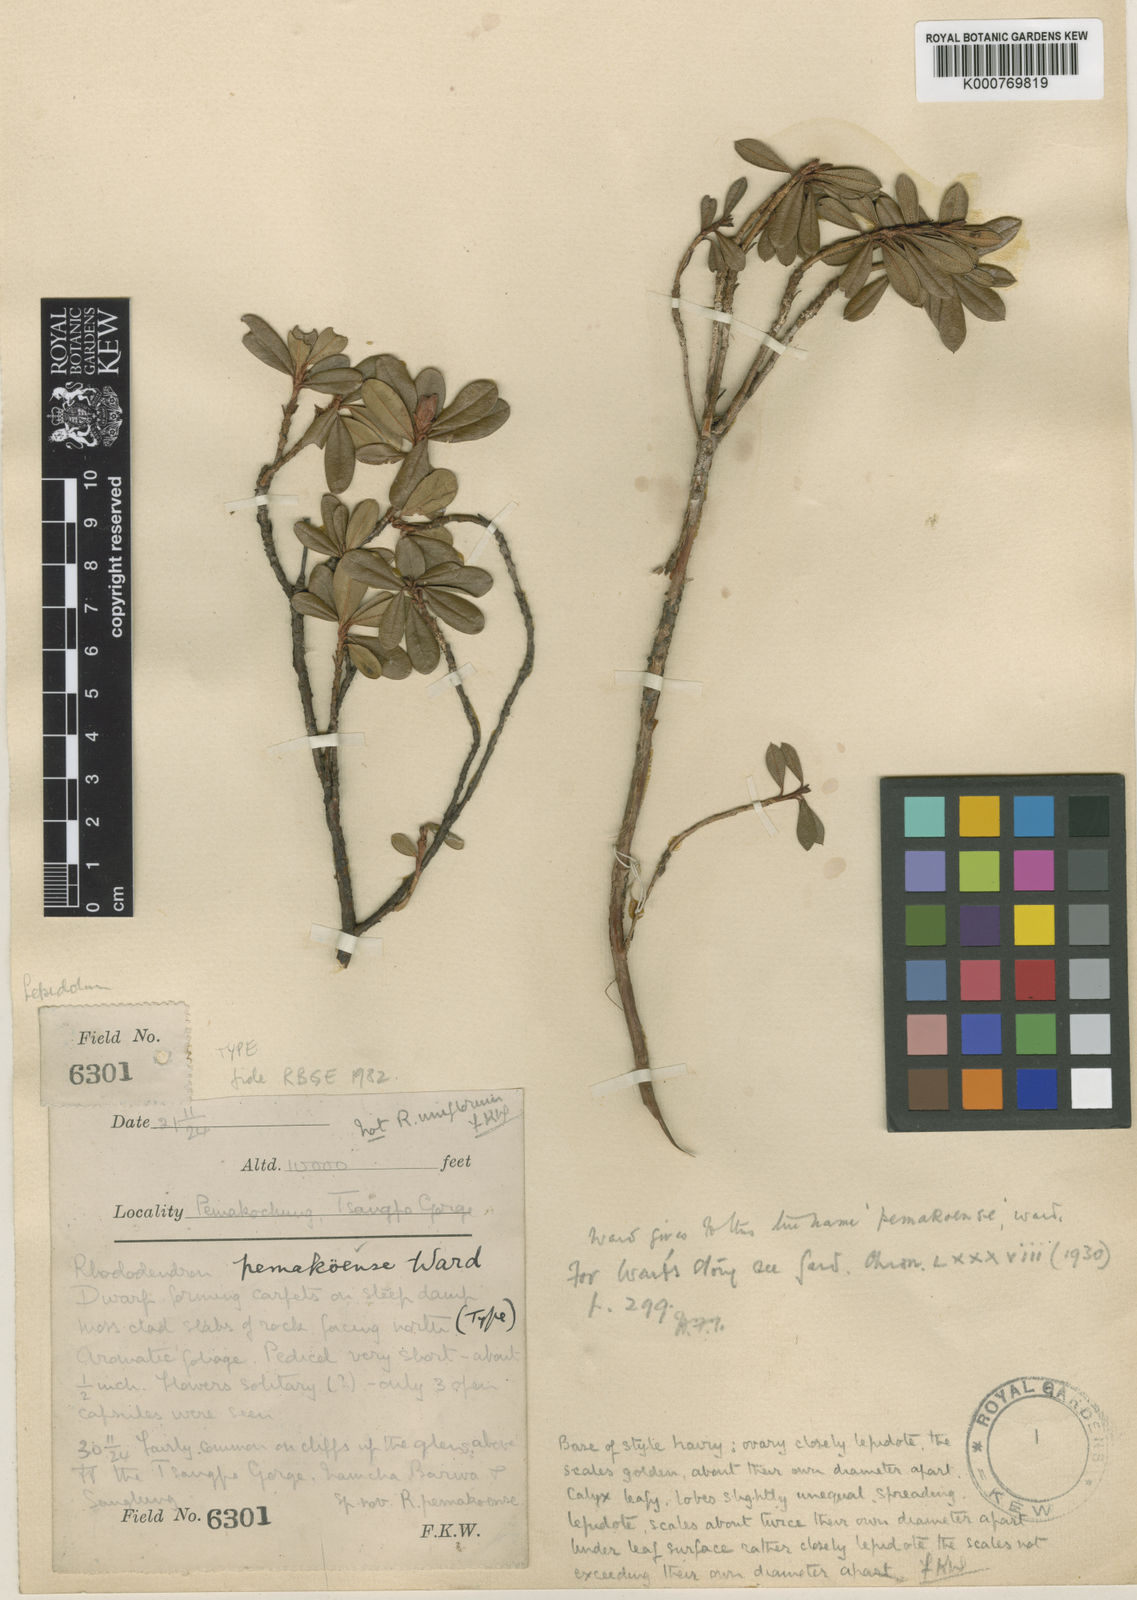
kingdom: Plantae
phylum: Tracheophyta
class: Magnoliopsida
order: Ericales
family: Ericaceae
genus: Rhododendron
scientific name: Rhododendron pemakoense
